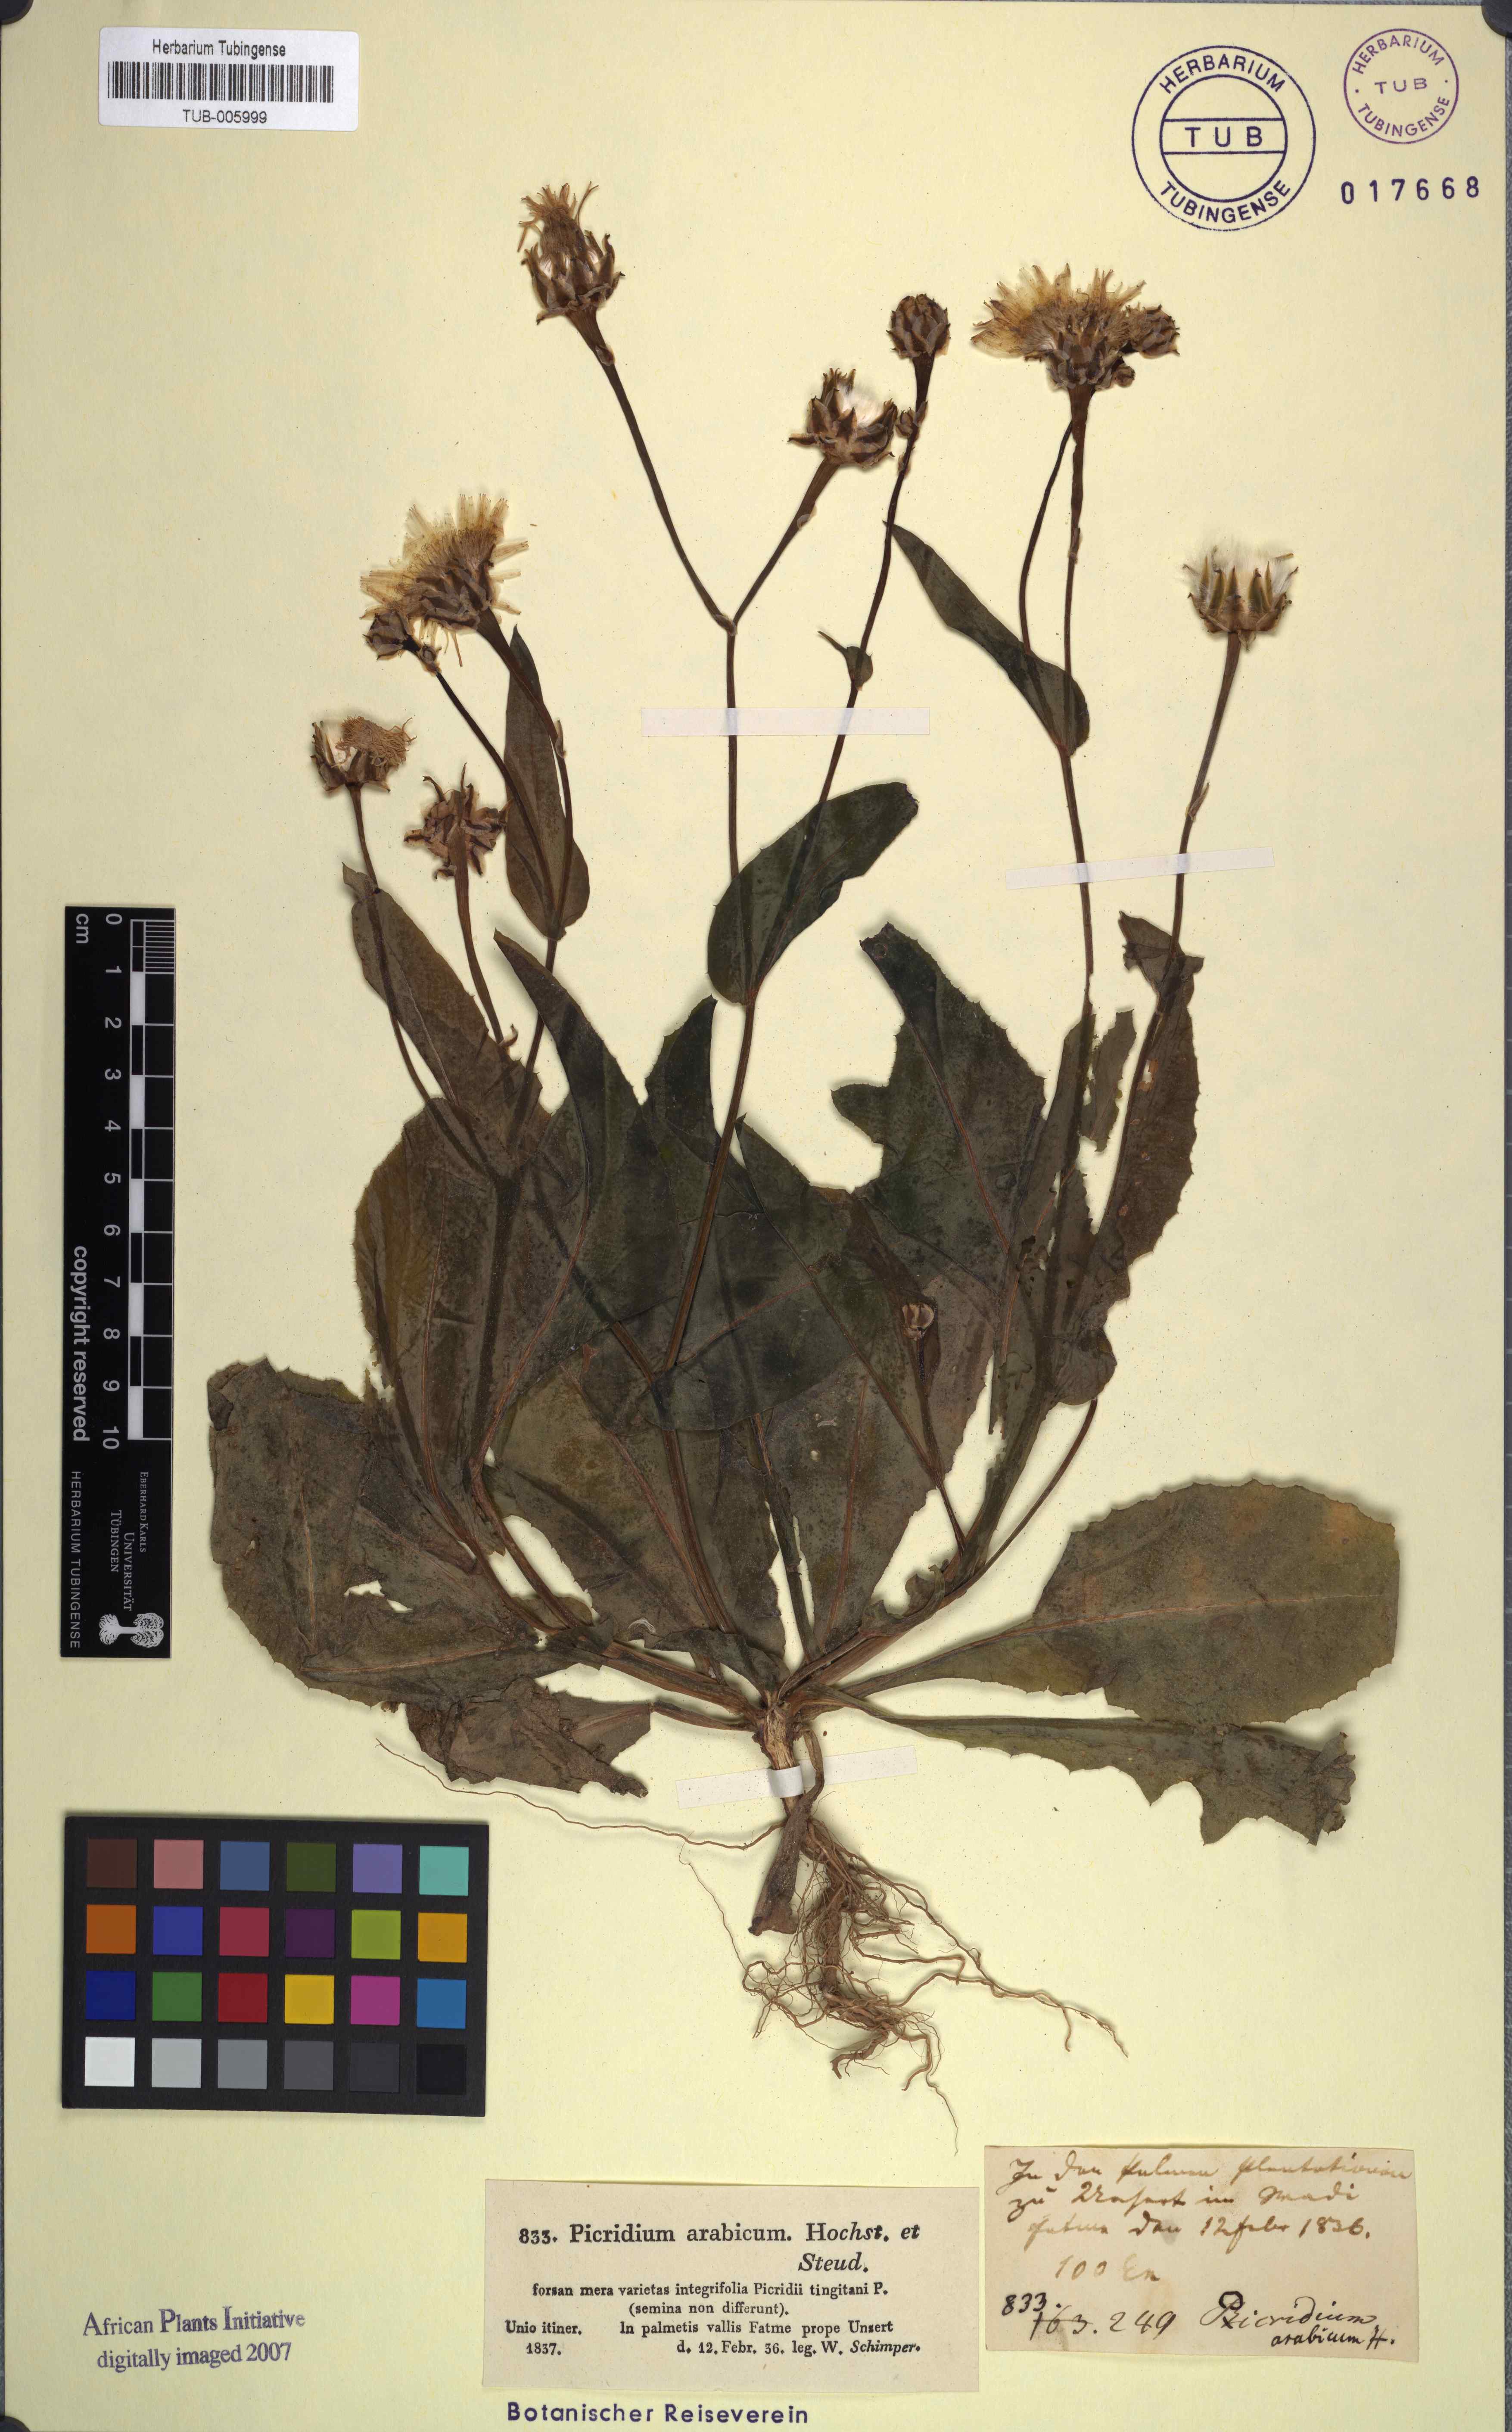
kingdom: Plantae
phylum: Tracheophyta
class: Magnoliopsida
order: Asterales
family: Asteraceae
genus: Reichardia
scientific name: Reichardia tingitana
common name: Reichardia
